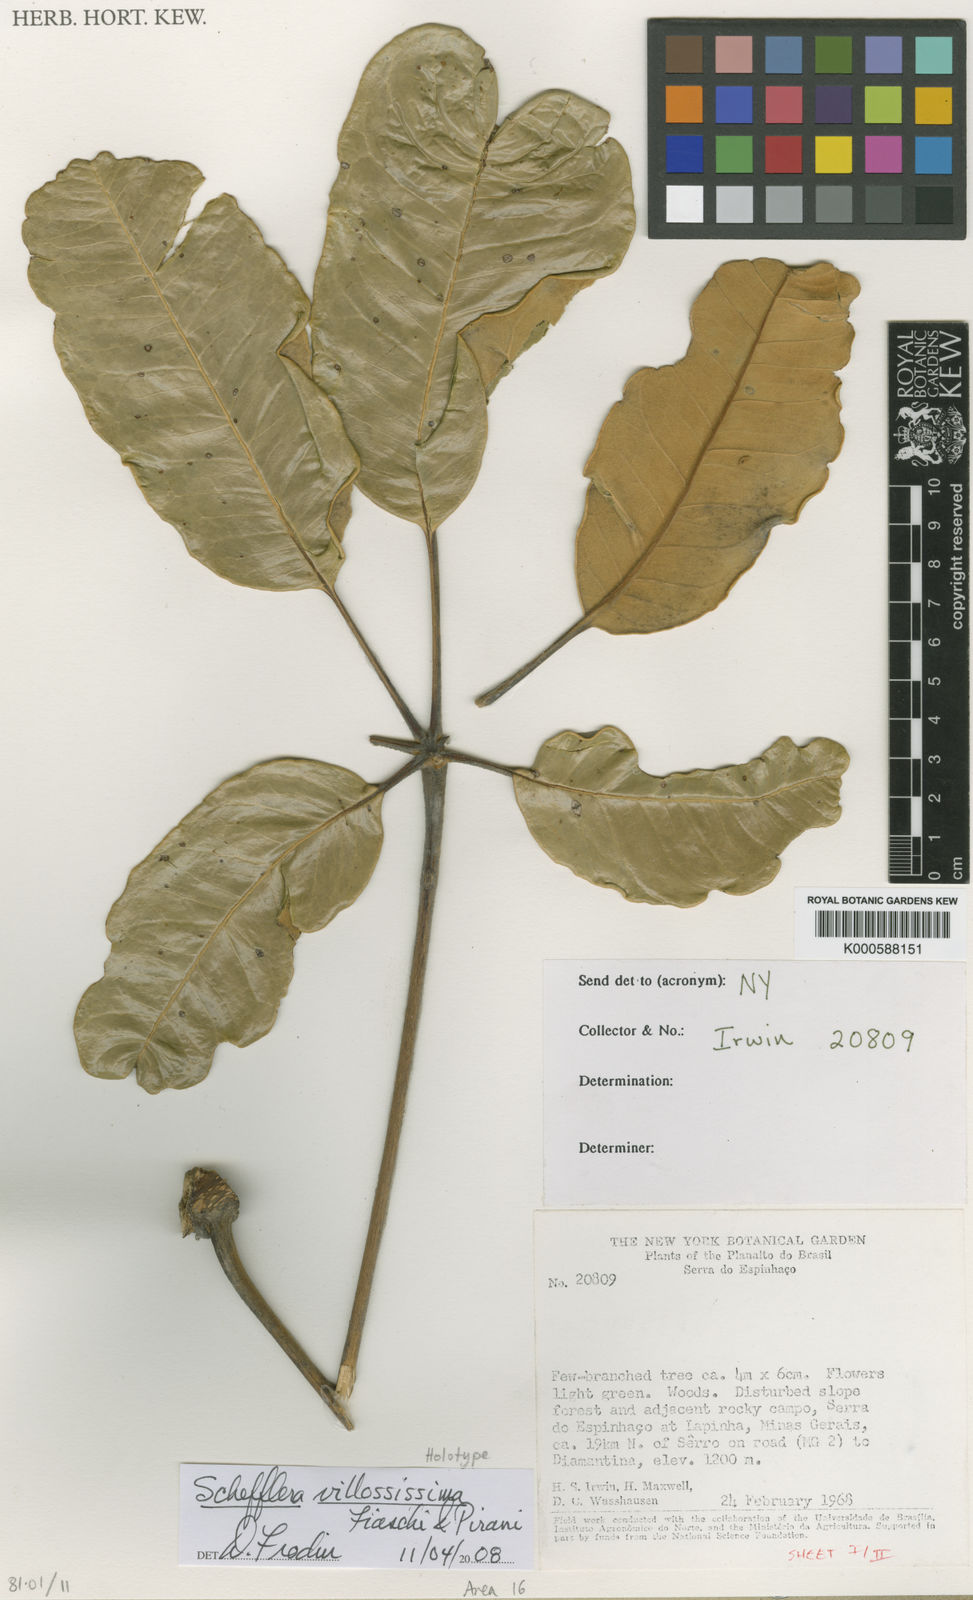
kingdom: Plantae
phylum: Tracheophyta
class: Magnoliopsida
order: Apiales
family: Araliaceae
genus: Sciodaphyllum
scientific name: Sciodaphyllum samarianum
